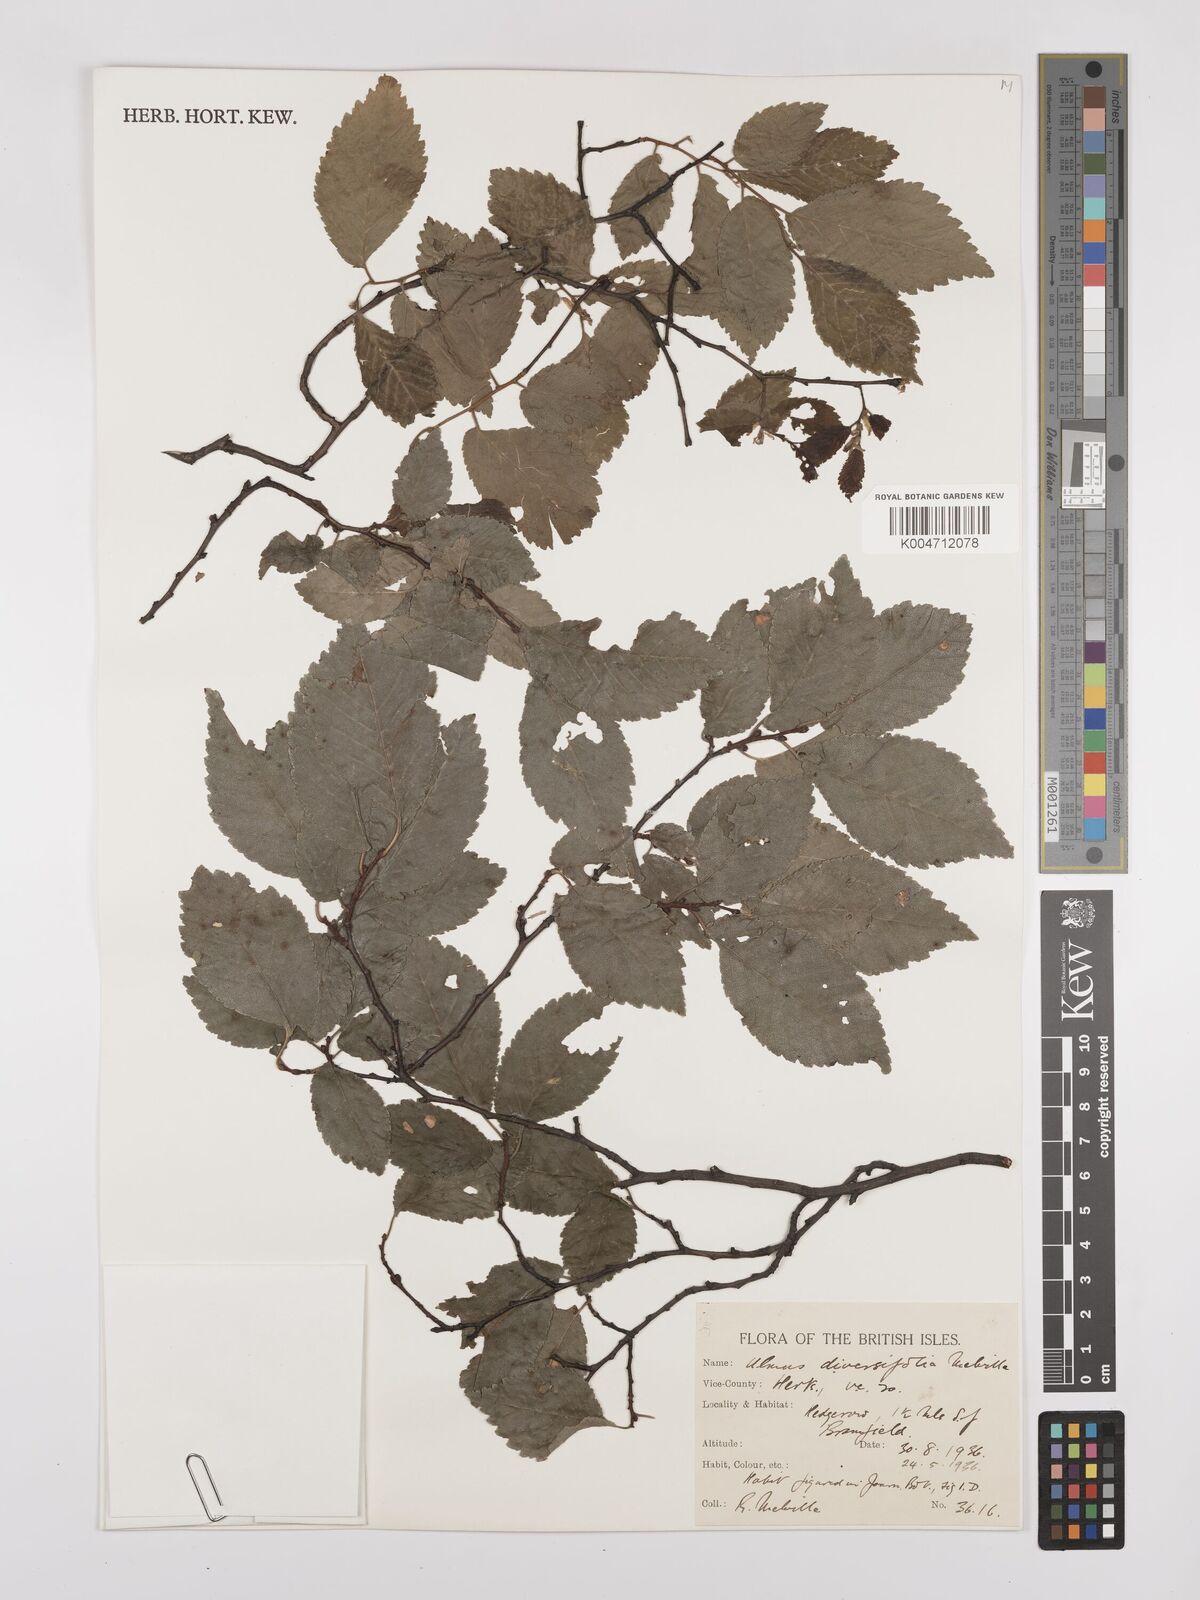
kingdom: Plantae
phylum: Tracheophyta
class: Magnoliopsida
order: Rosales
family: Ulmaceae
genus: Ulmus
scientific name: Ulmus minor
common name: Small-leaved elm
